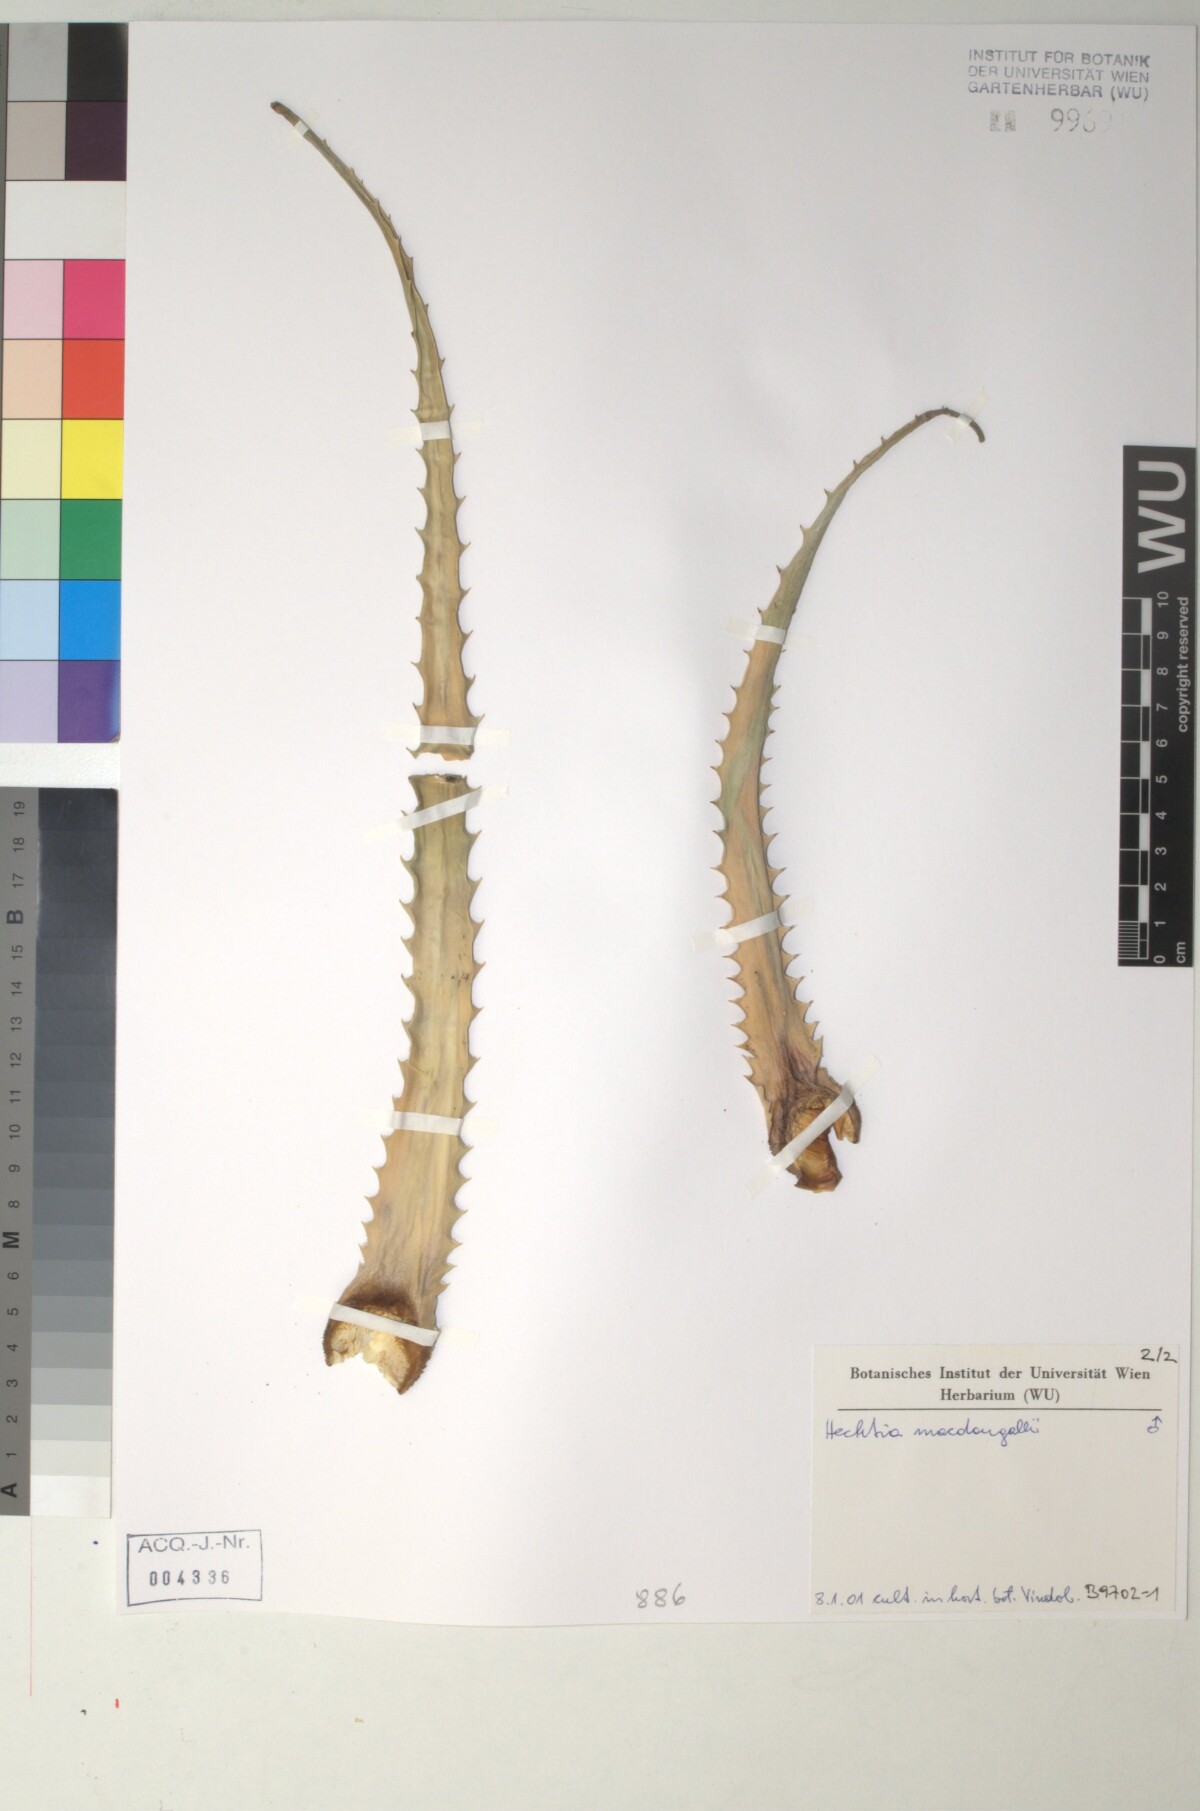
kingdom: Plantae
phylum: Tracheophyta
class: Liliopsida
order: Poales
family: Bromeliaceae
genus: Hechtia
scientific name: Hechtia
